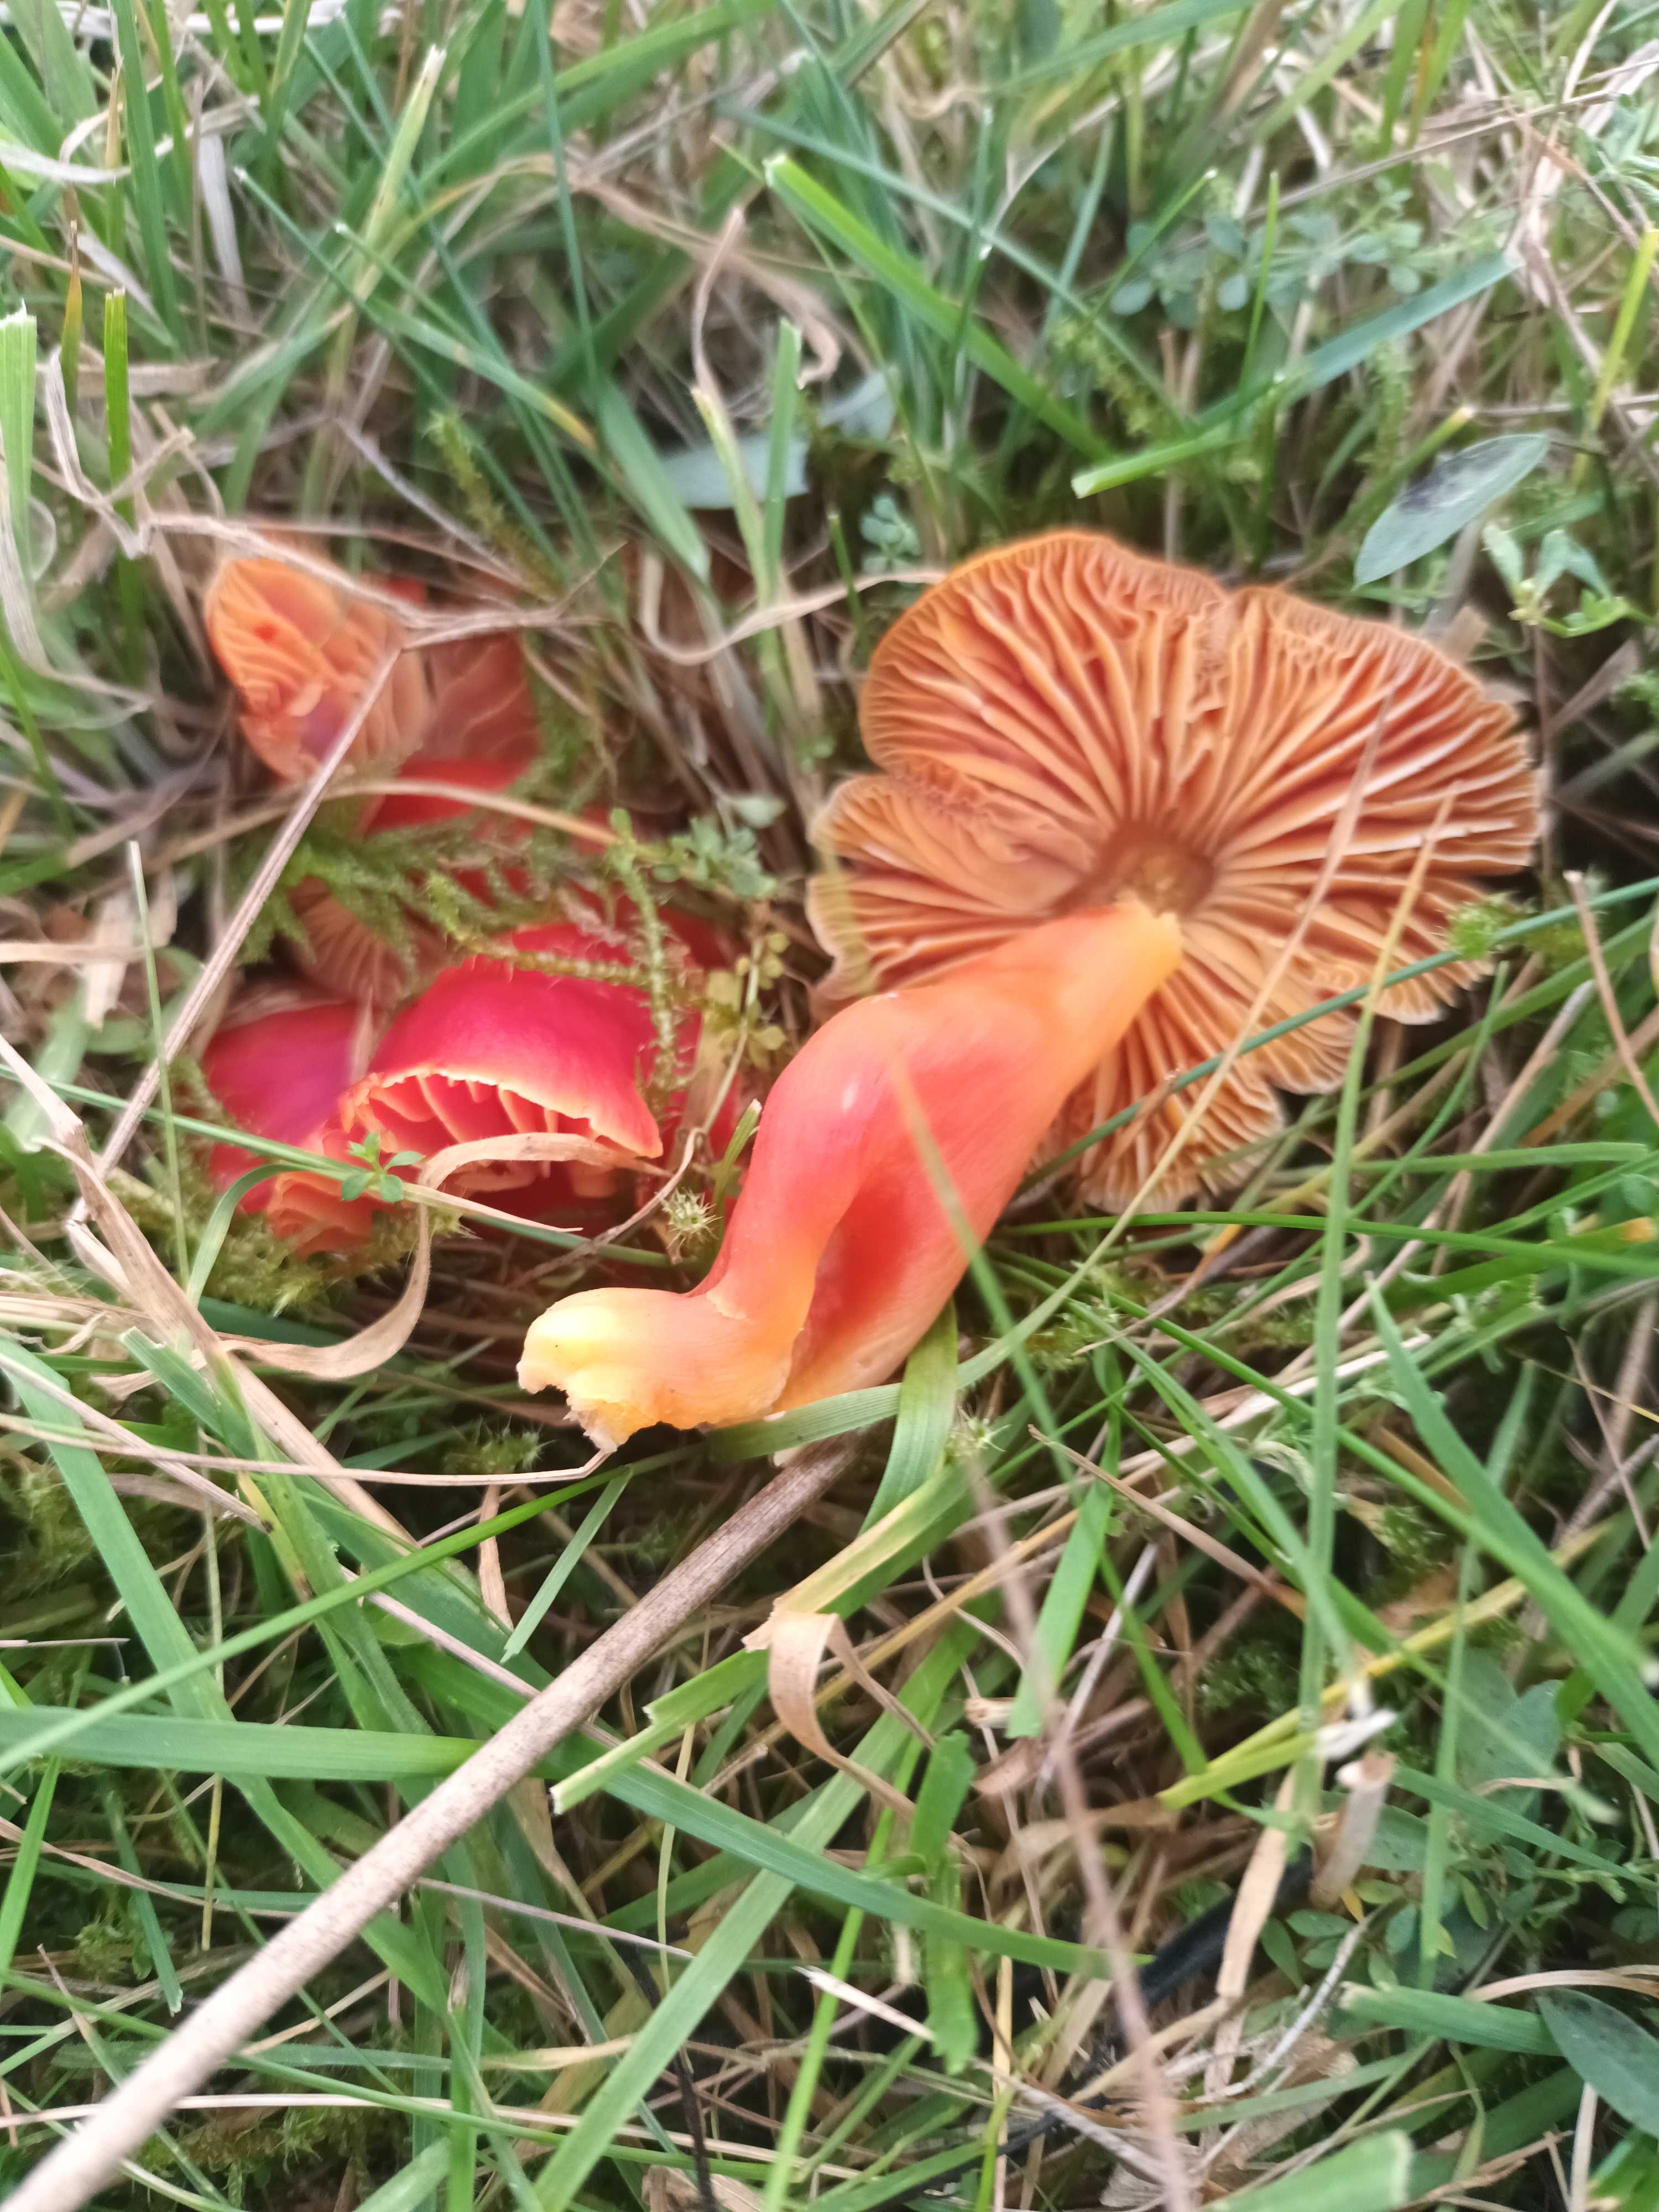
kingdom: Fungi
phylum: Basidiomycota
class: Agaricomycetes
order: Agaricales
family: Hygrophoraceae
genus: Hygrocybe
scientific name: Hygrocybe coccinea
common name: cinnober-vokshat
